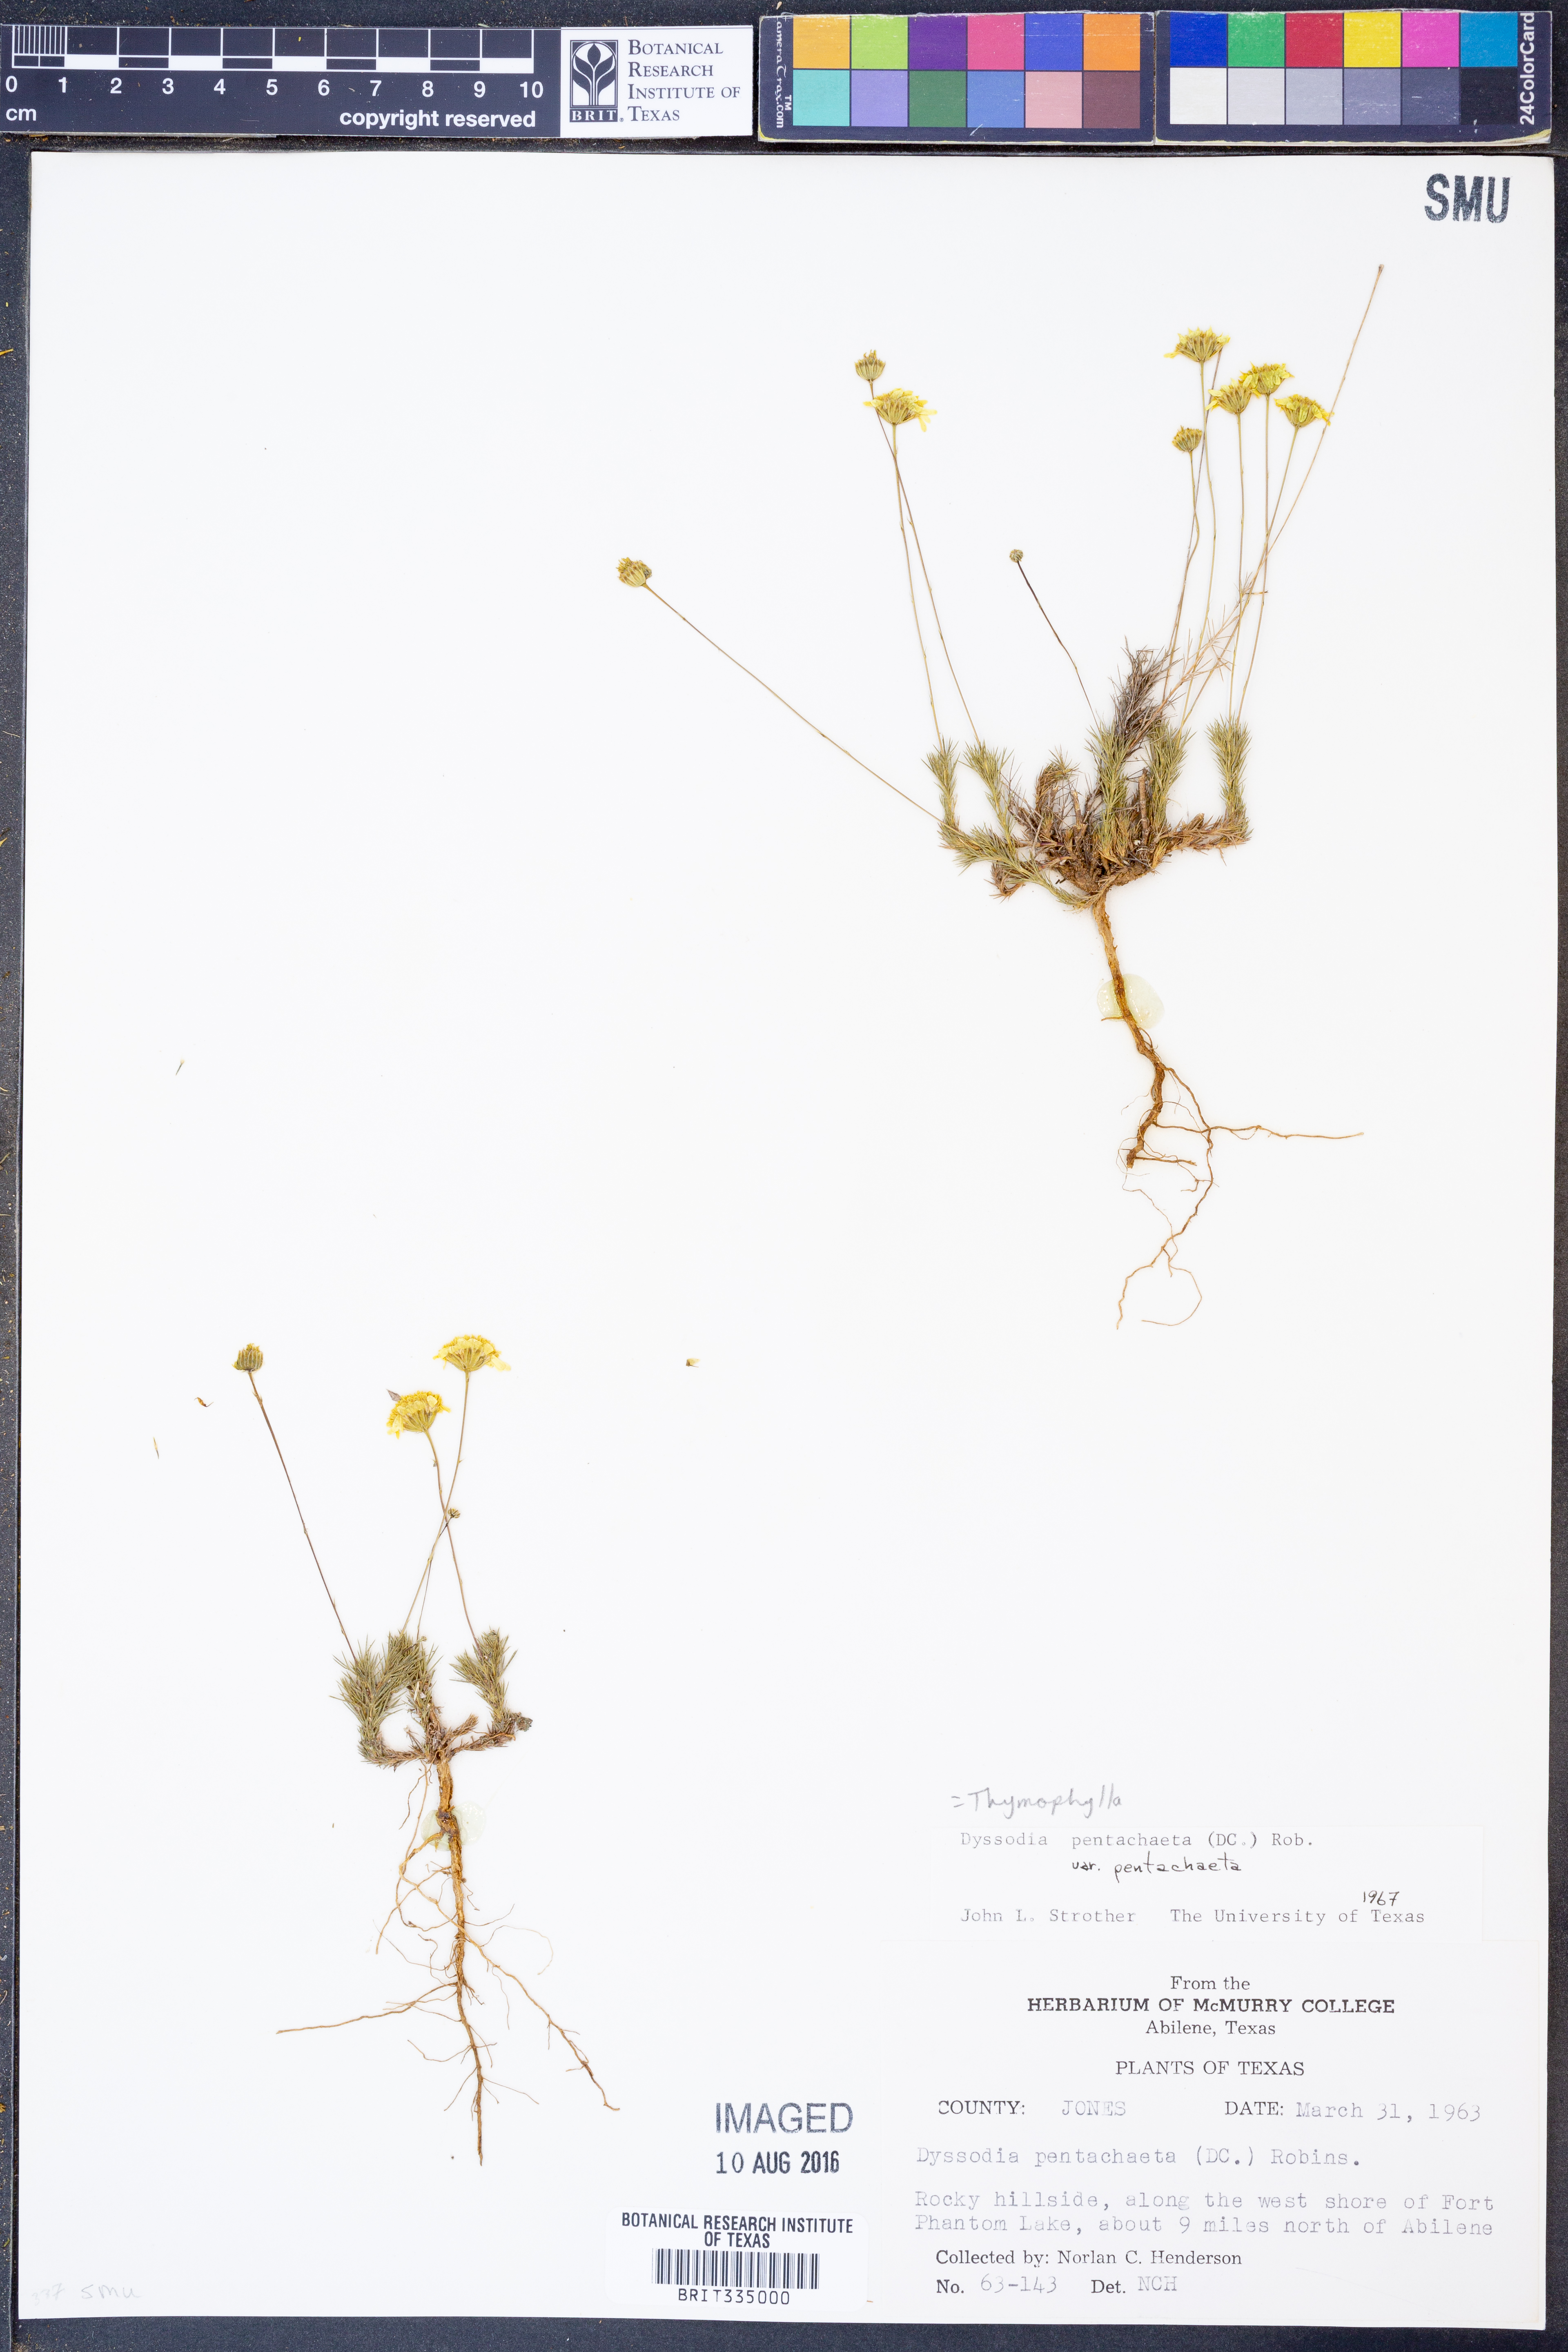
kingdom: Plantae
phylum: Tracheophyta
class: Magnoliopsida
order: Asterales
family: Asteraceae
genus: Thymophylla
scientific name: Thymophylla pentachaeta
